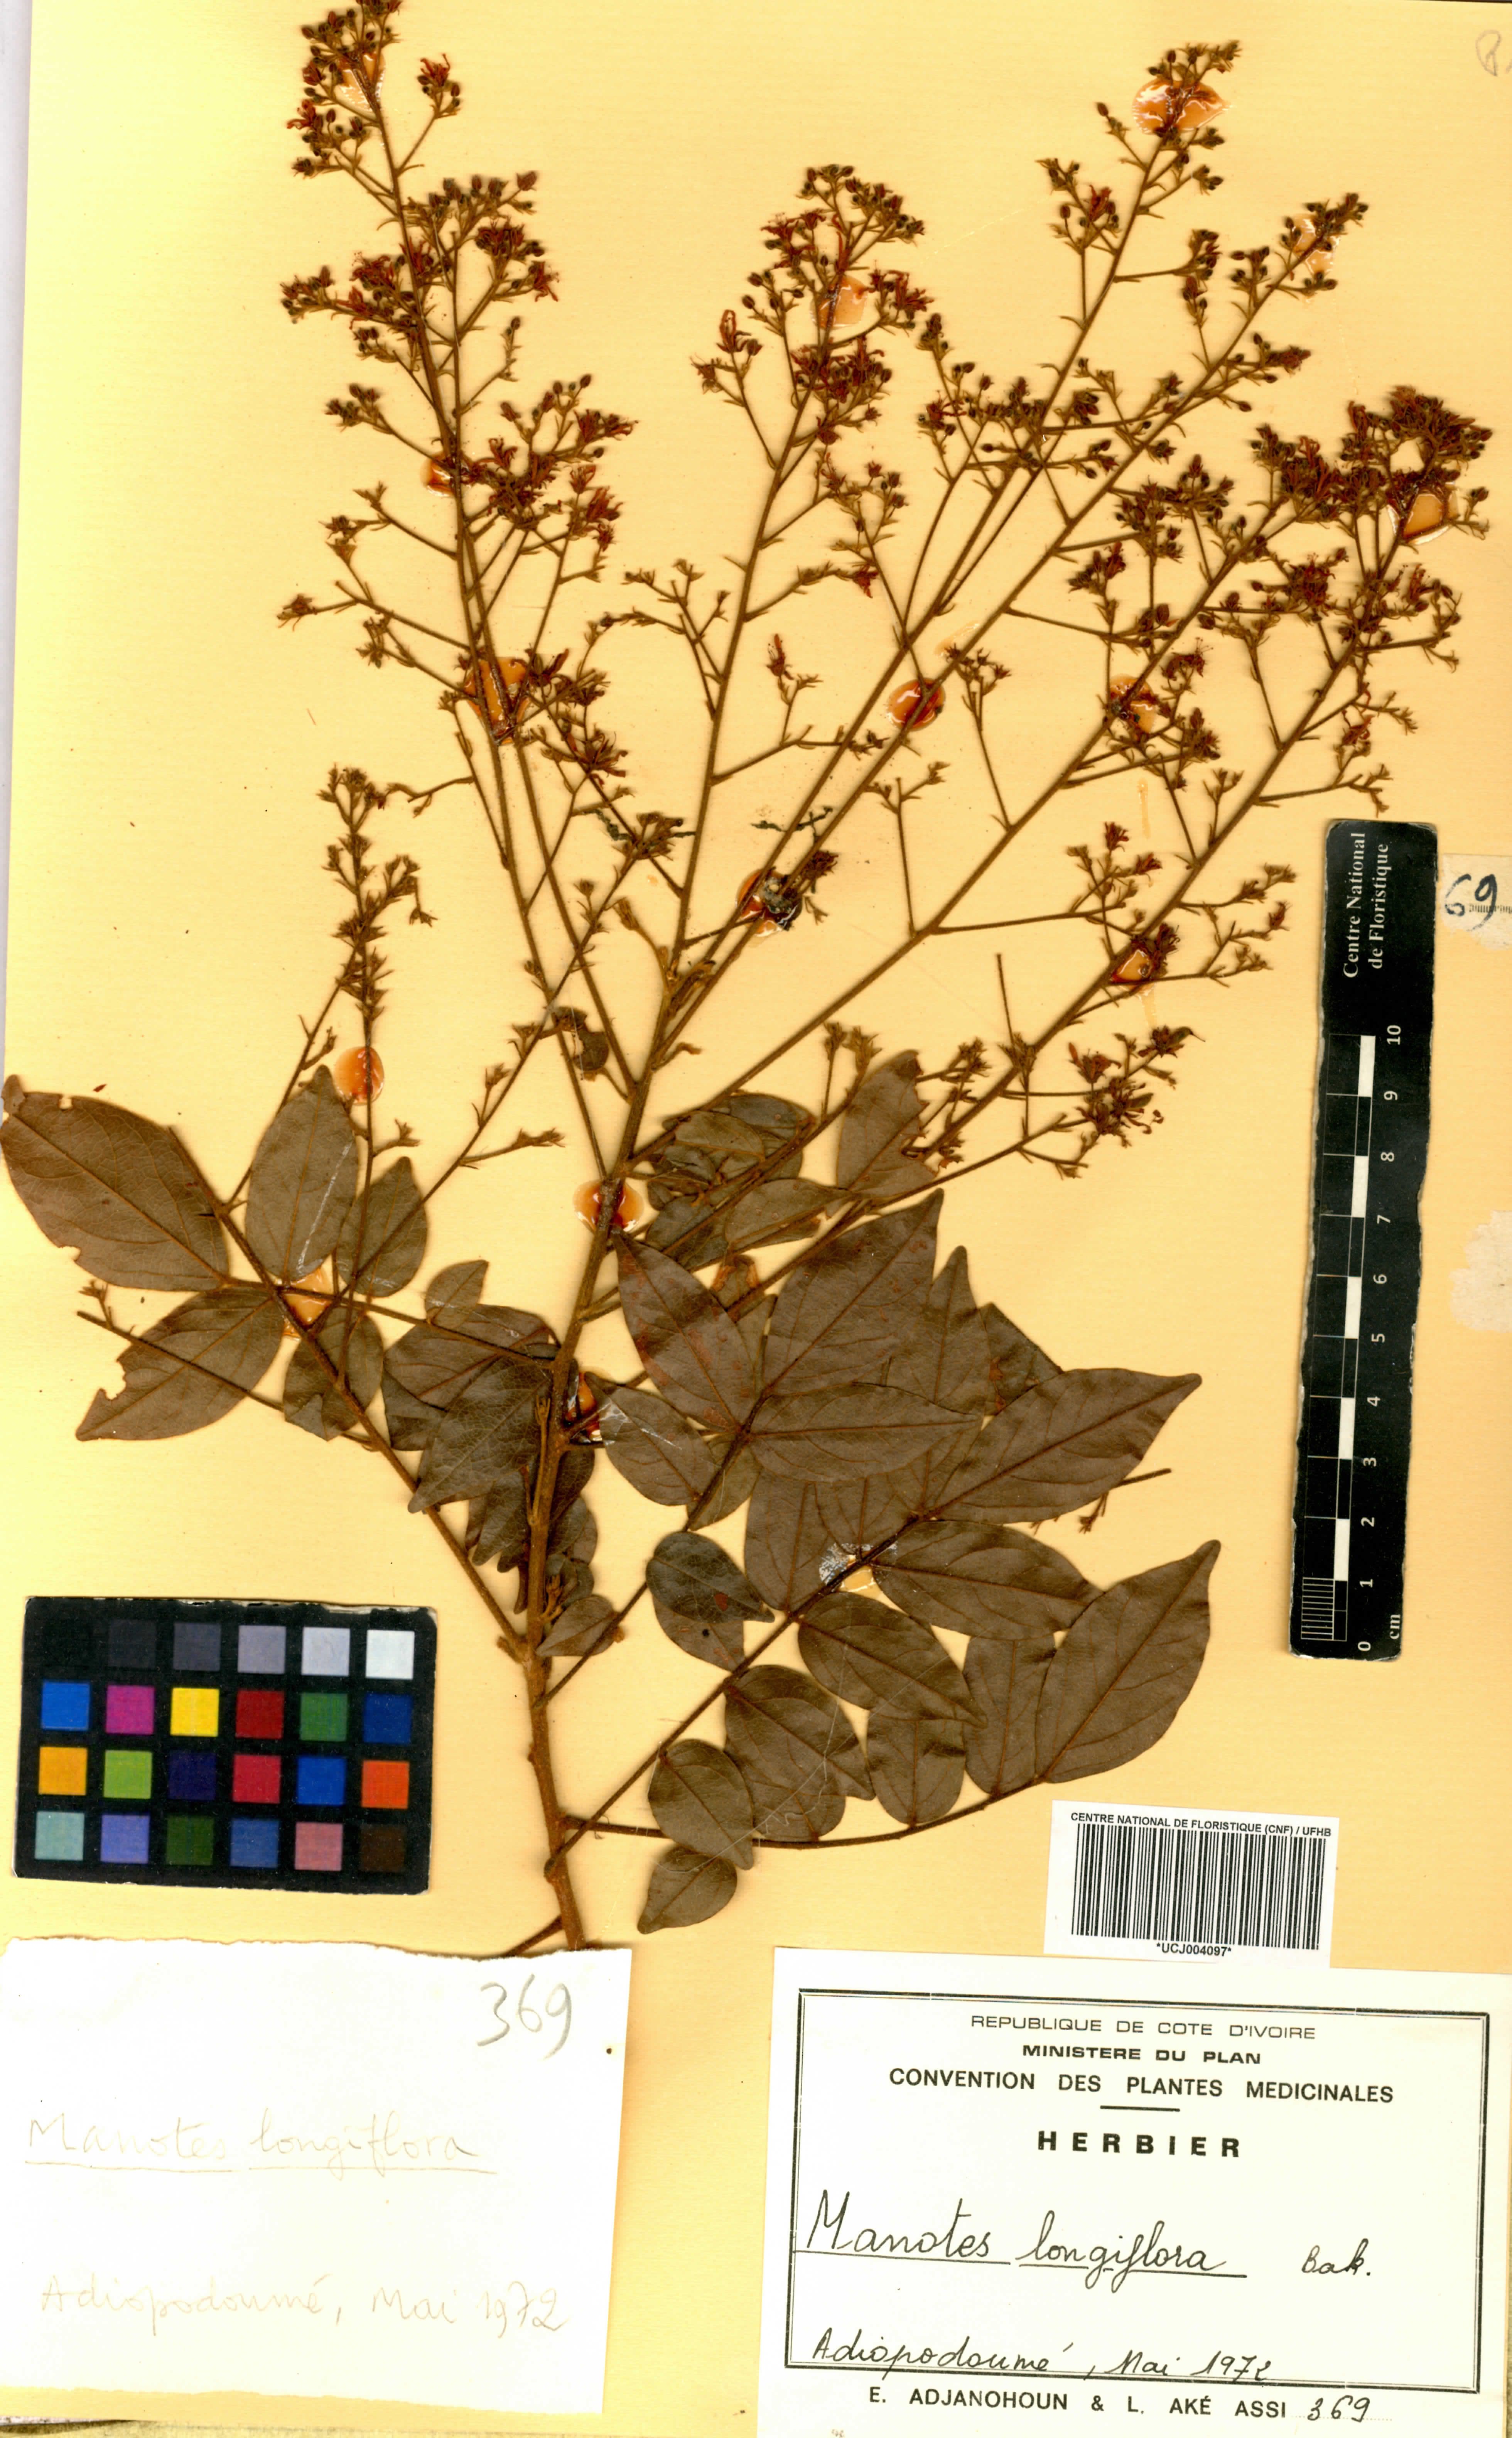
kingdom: Plantae
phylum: Tracheophyta
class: Magnoliopsida
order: Oxalidales
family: Connaraceae
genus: Manotes
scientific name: Manotes expansa
